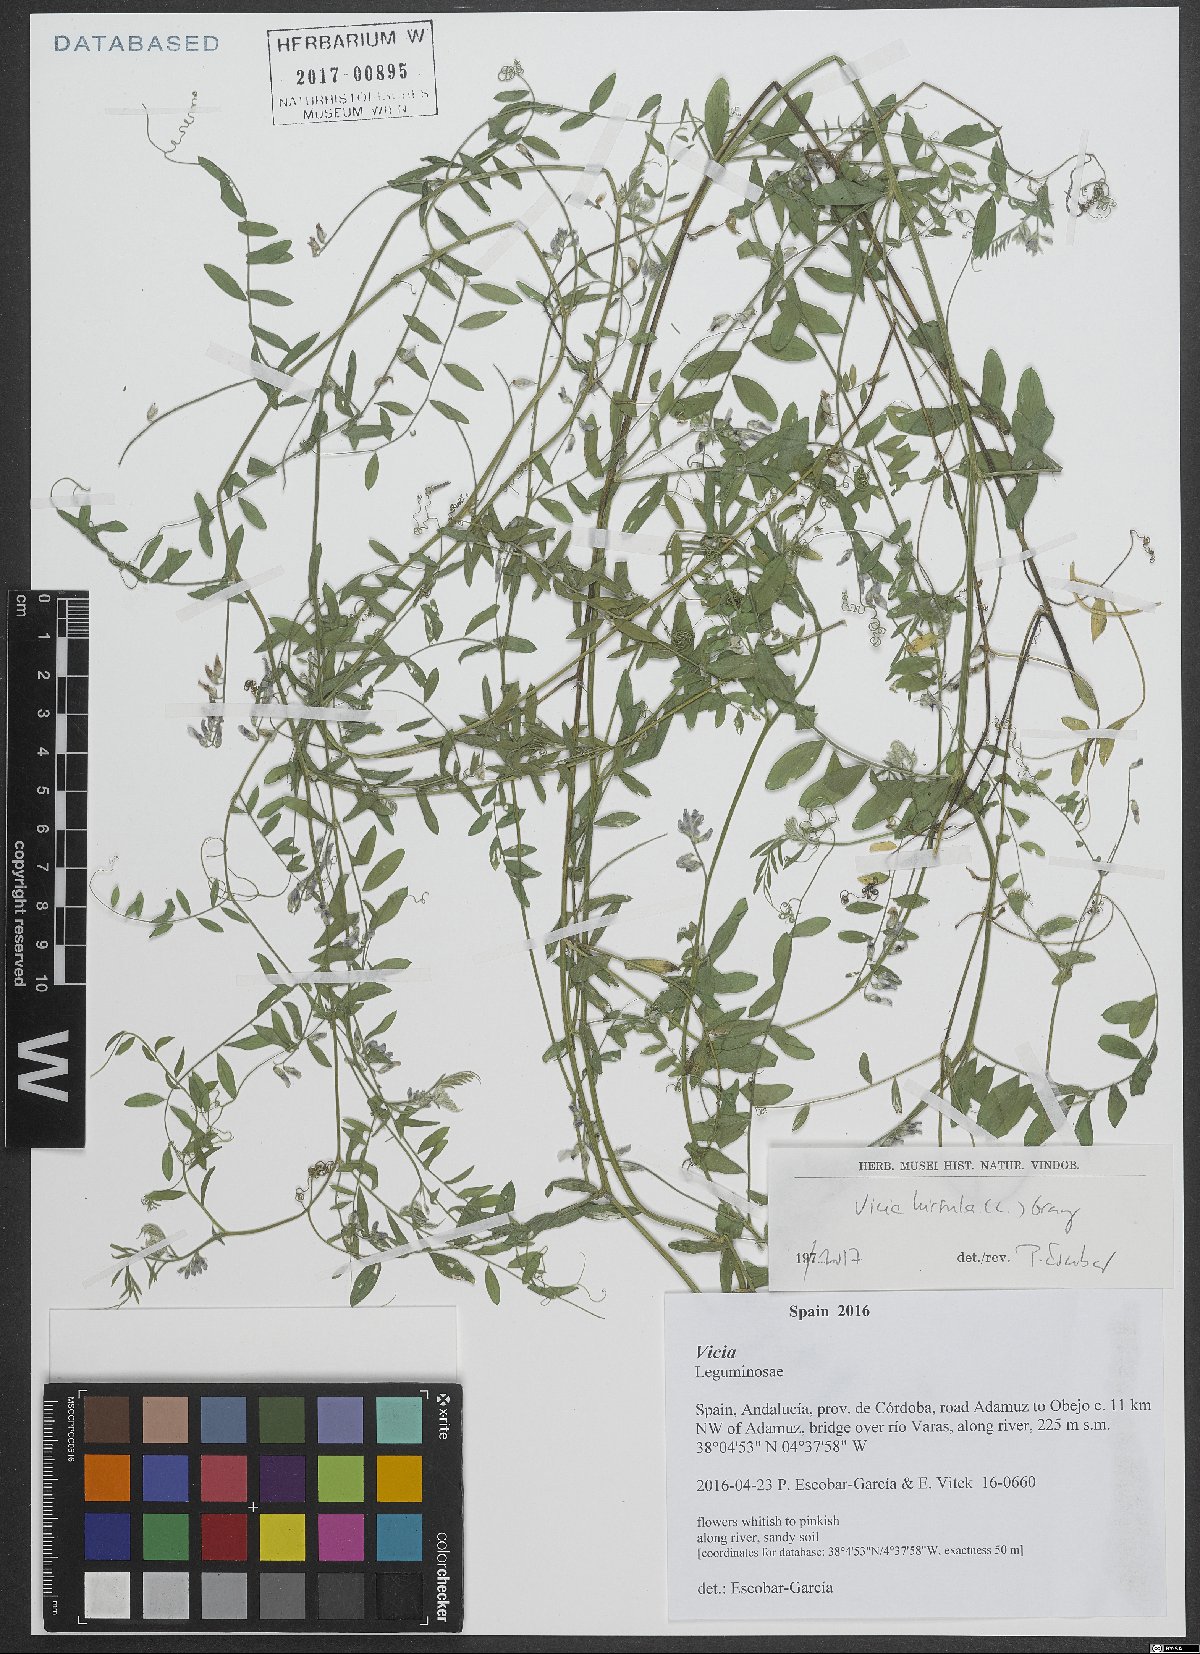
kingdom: Plantae
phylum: Tracheophyta
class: Magnoliopsida
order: Fabales
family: Fabaceae
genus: Vicia
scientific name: Vicia hirsuta
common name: Tiny vetch
